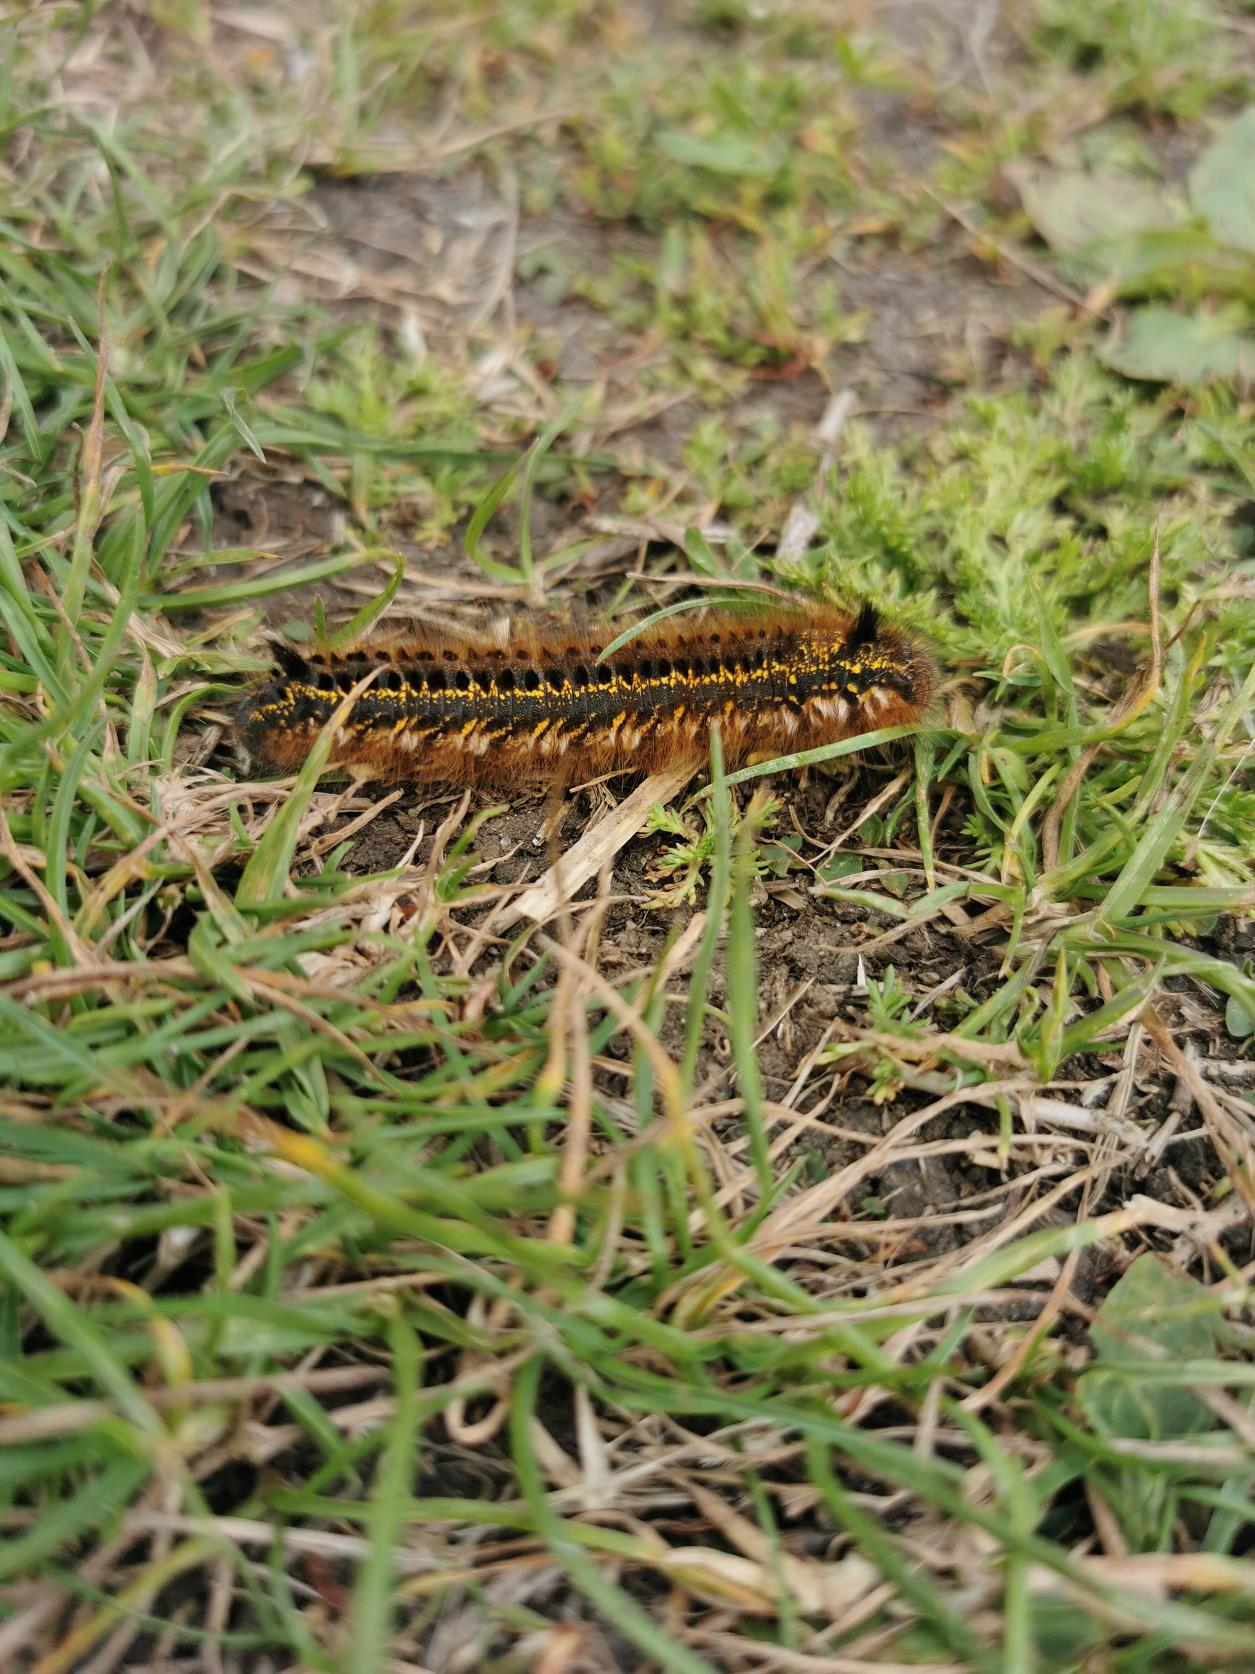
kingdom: Animalia
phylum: Arthropoda
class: Insecta
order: Lepidoptera
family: Lasiocampidae
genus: Euthrix
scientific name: Euthrix potatoria
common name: Græsspinder
